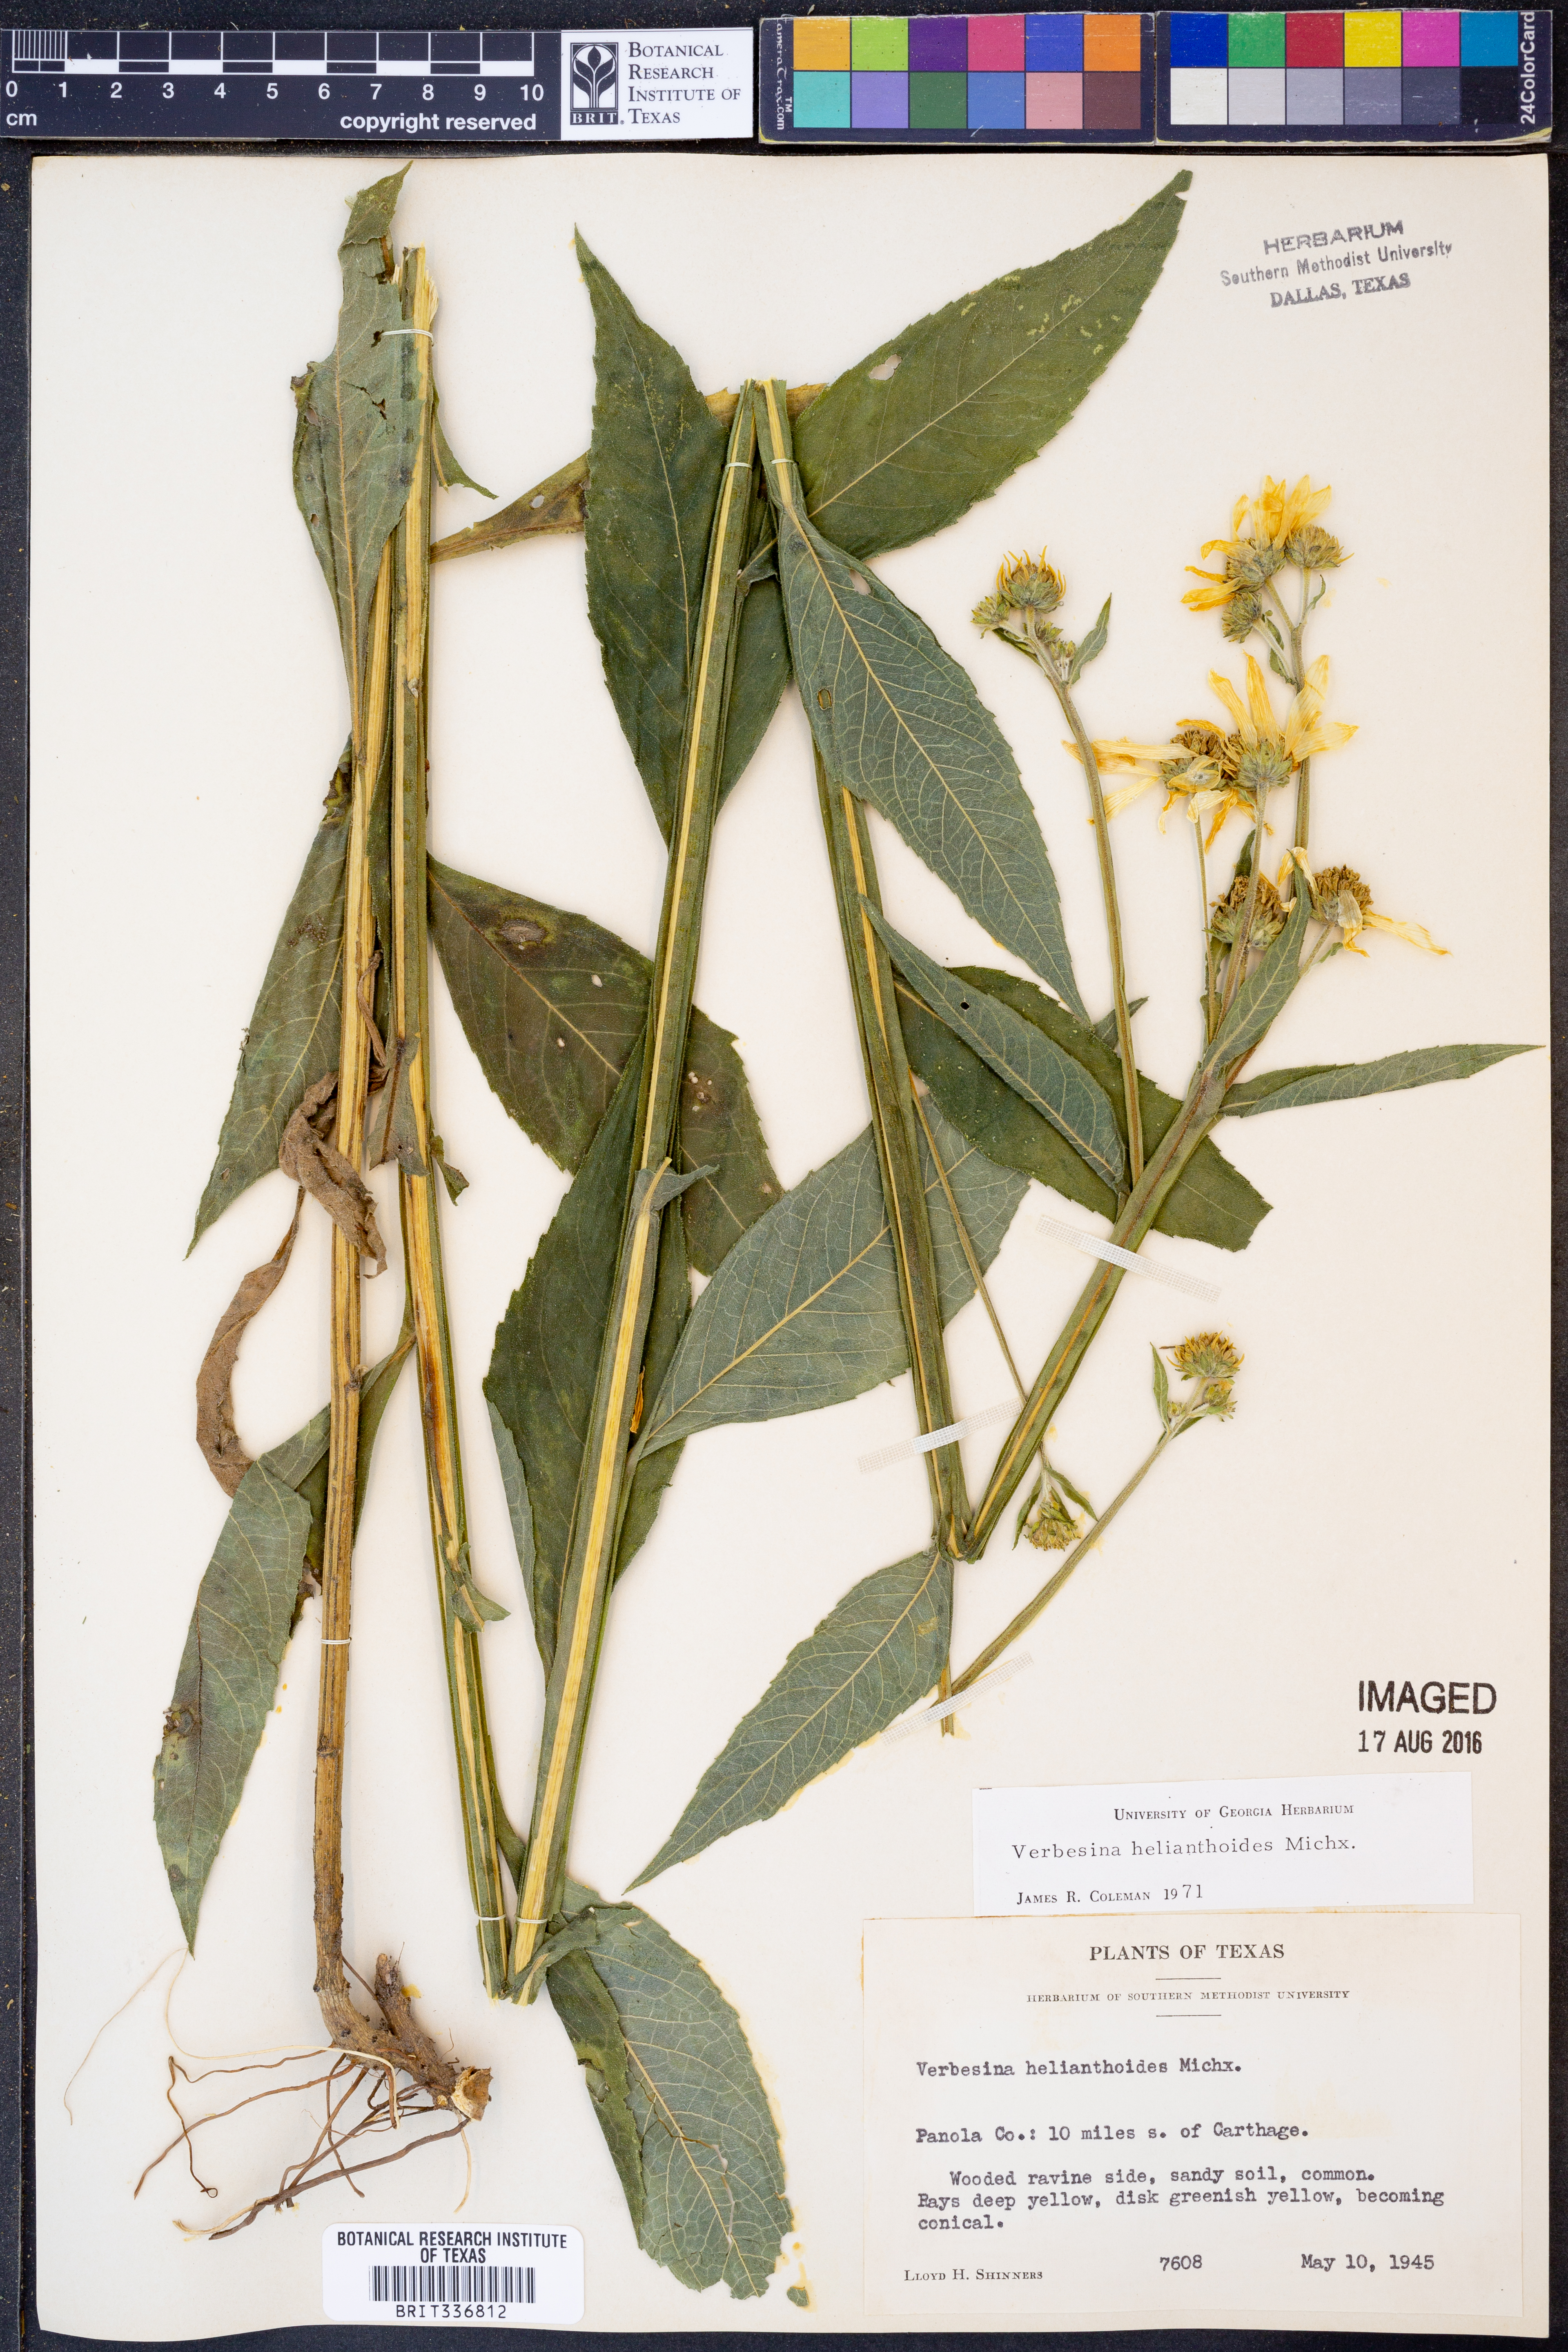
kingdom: Plantae
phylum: Tracheophyta
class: Magnoliopsida
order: Asterales
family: Asteraceae
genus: Verbesina
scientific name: Verbesina helianthoides
